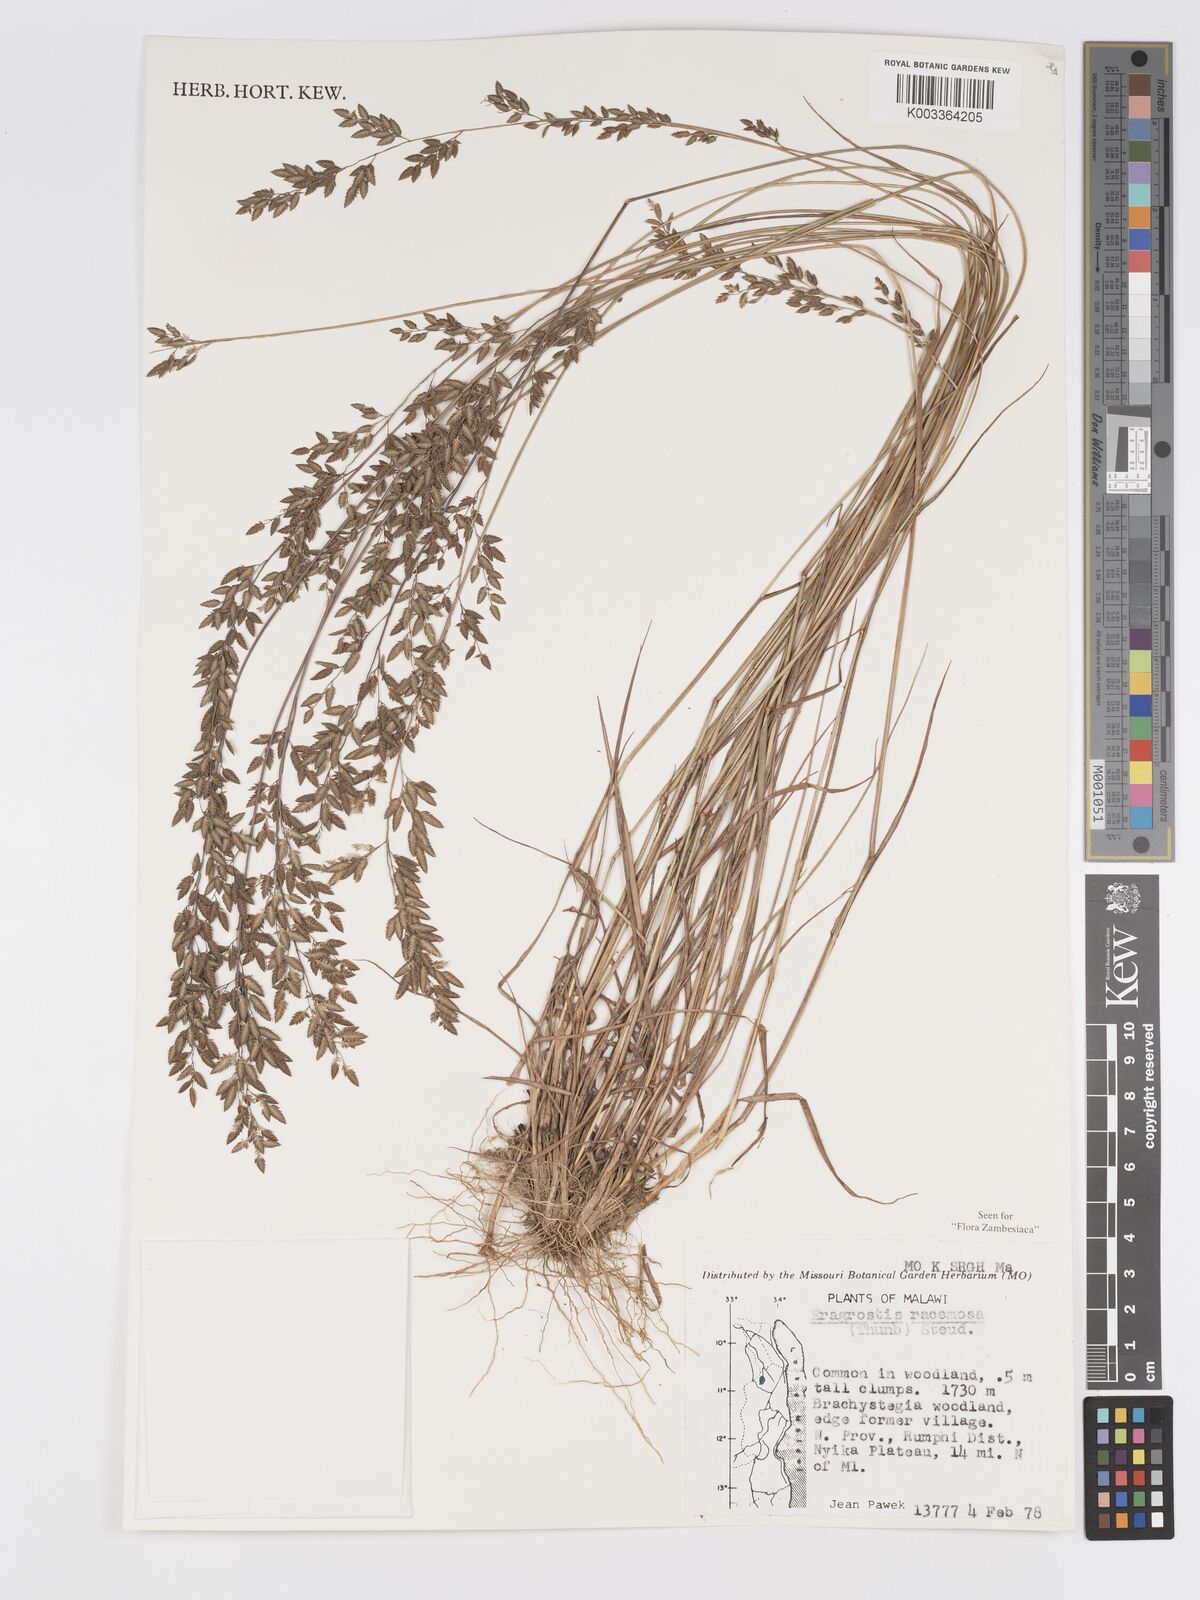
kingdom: Plantae
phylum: Tracheophyta
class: Liliopsida
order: Poales
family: Poaceae
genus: Eragrostis
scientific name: Eragrostis racemosa
